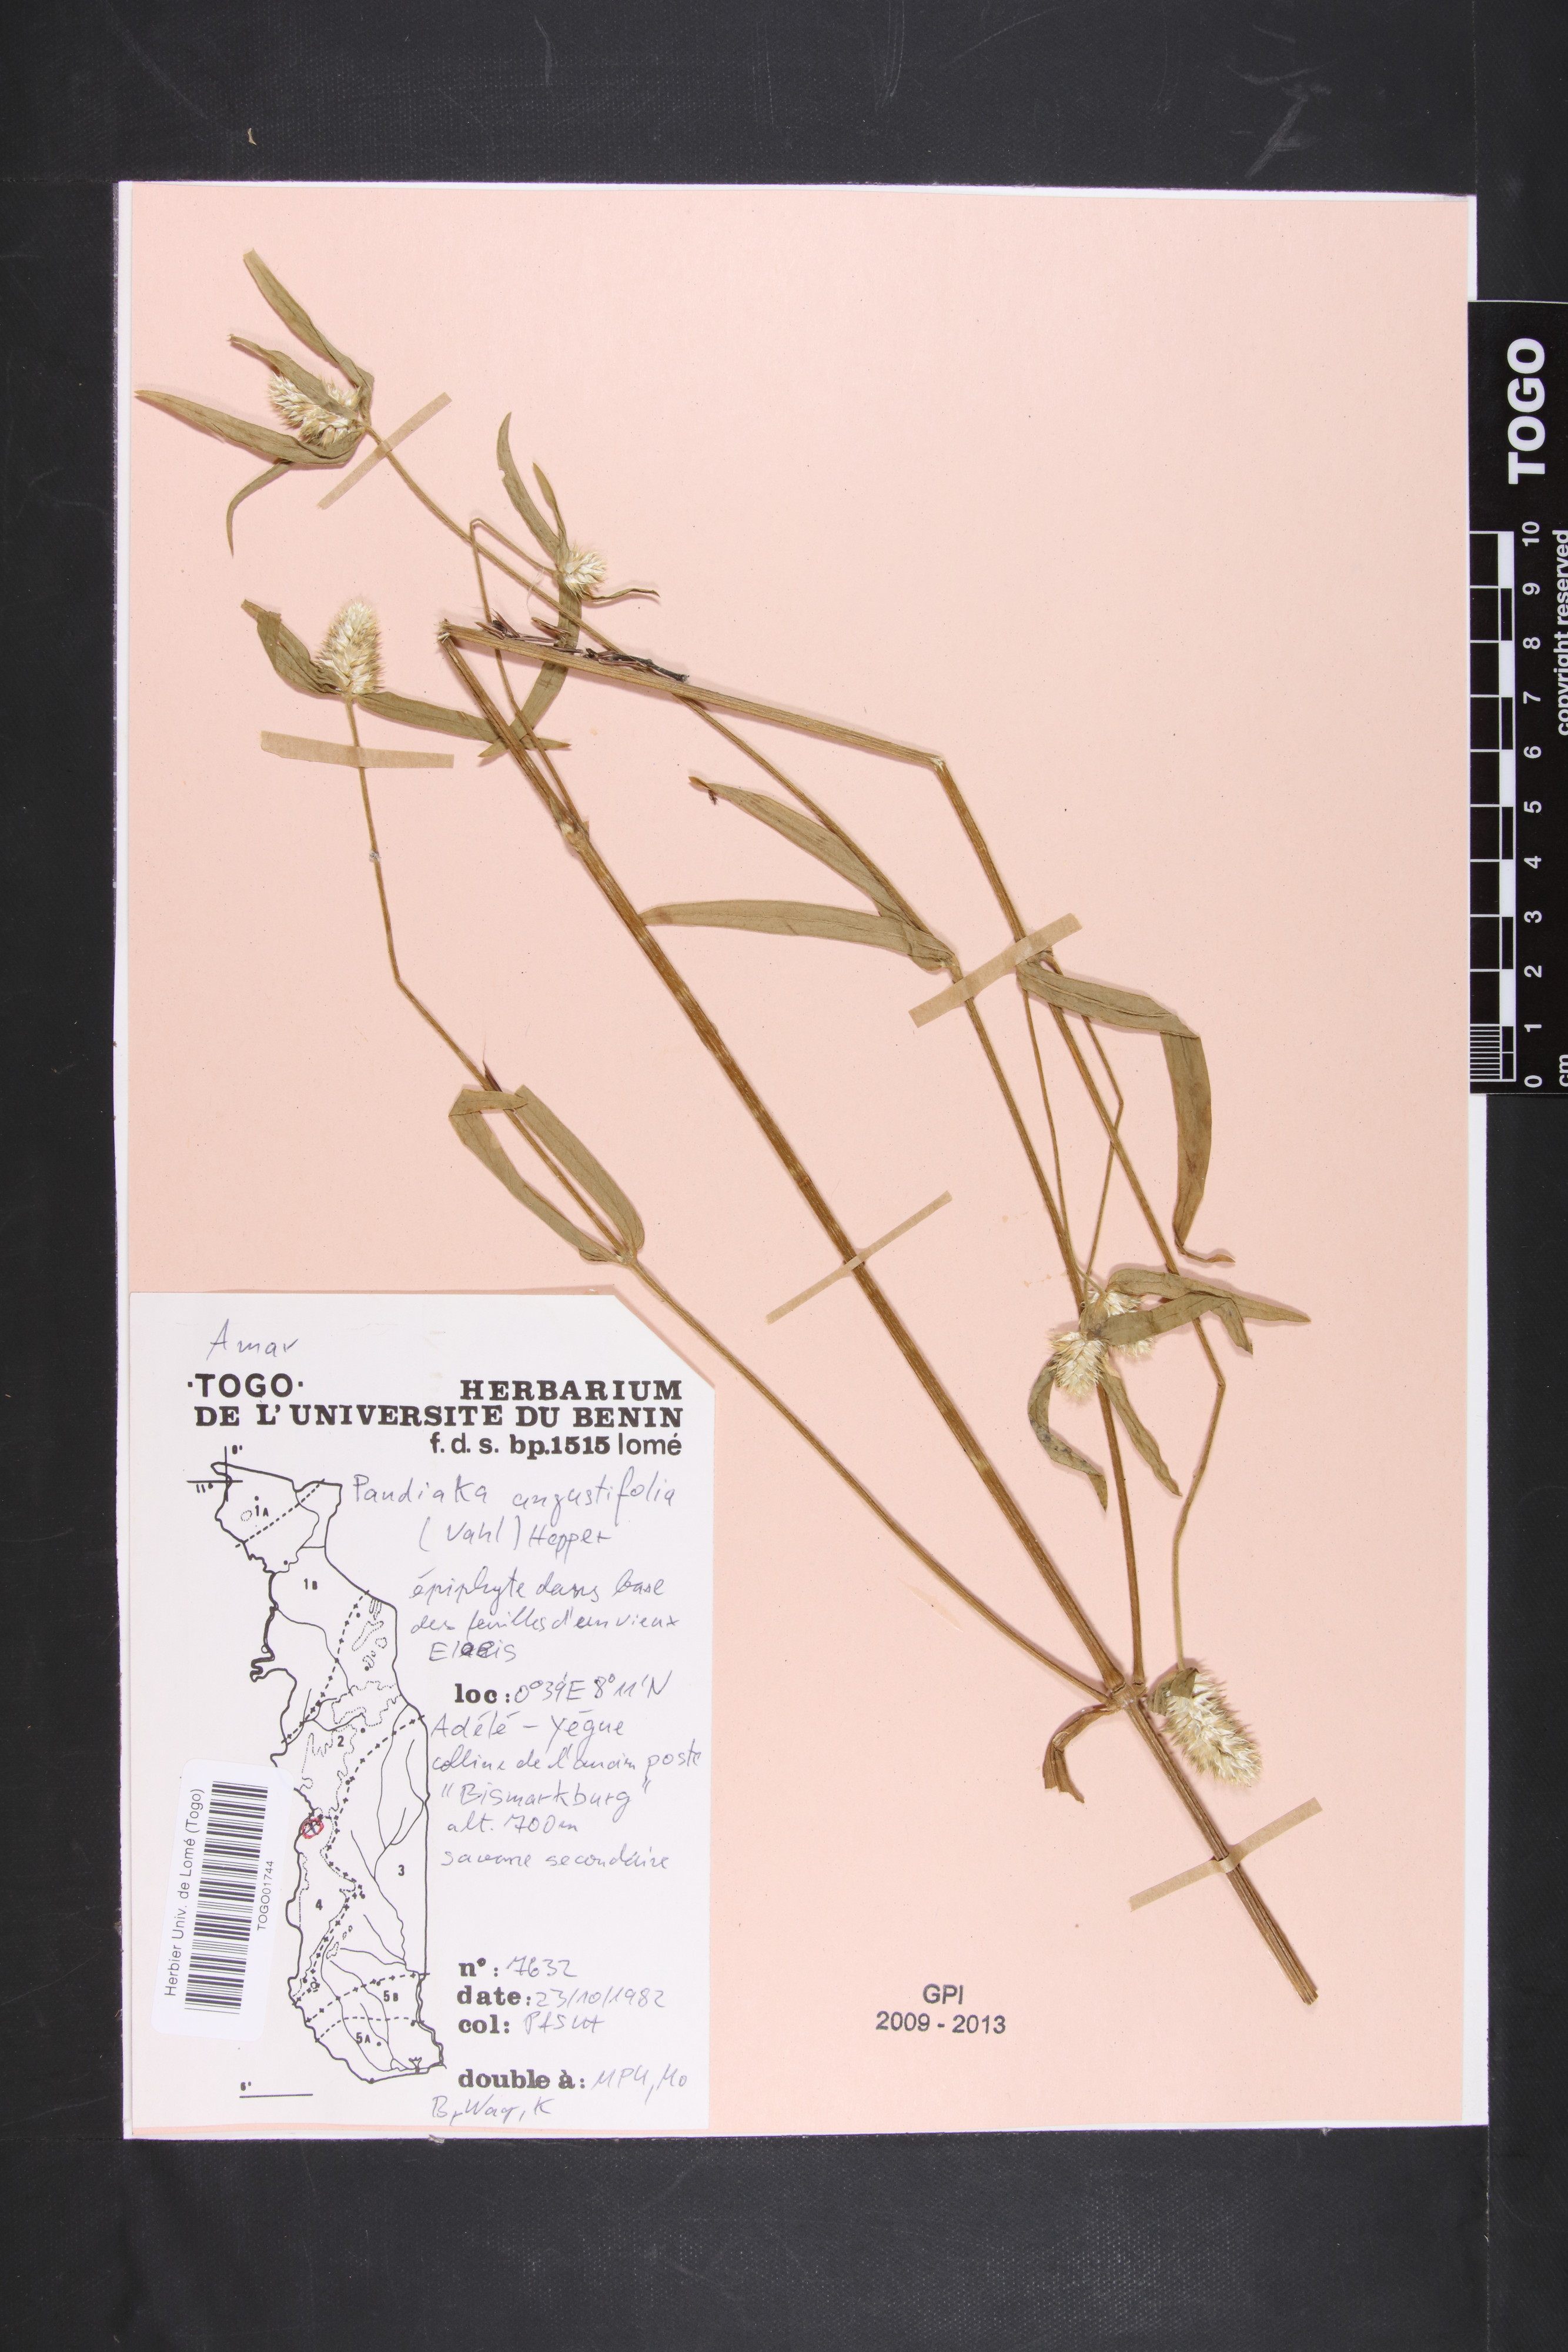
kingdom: Plantae
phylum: Tracheophyta
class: Magnoliopsida
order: Caryophyllales
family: Amaranthaceae
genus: Pandiaka
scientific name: Pandiaka angustifolia
